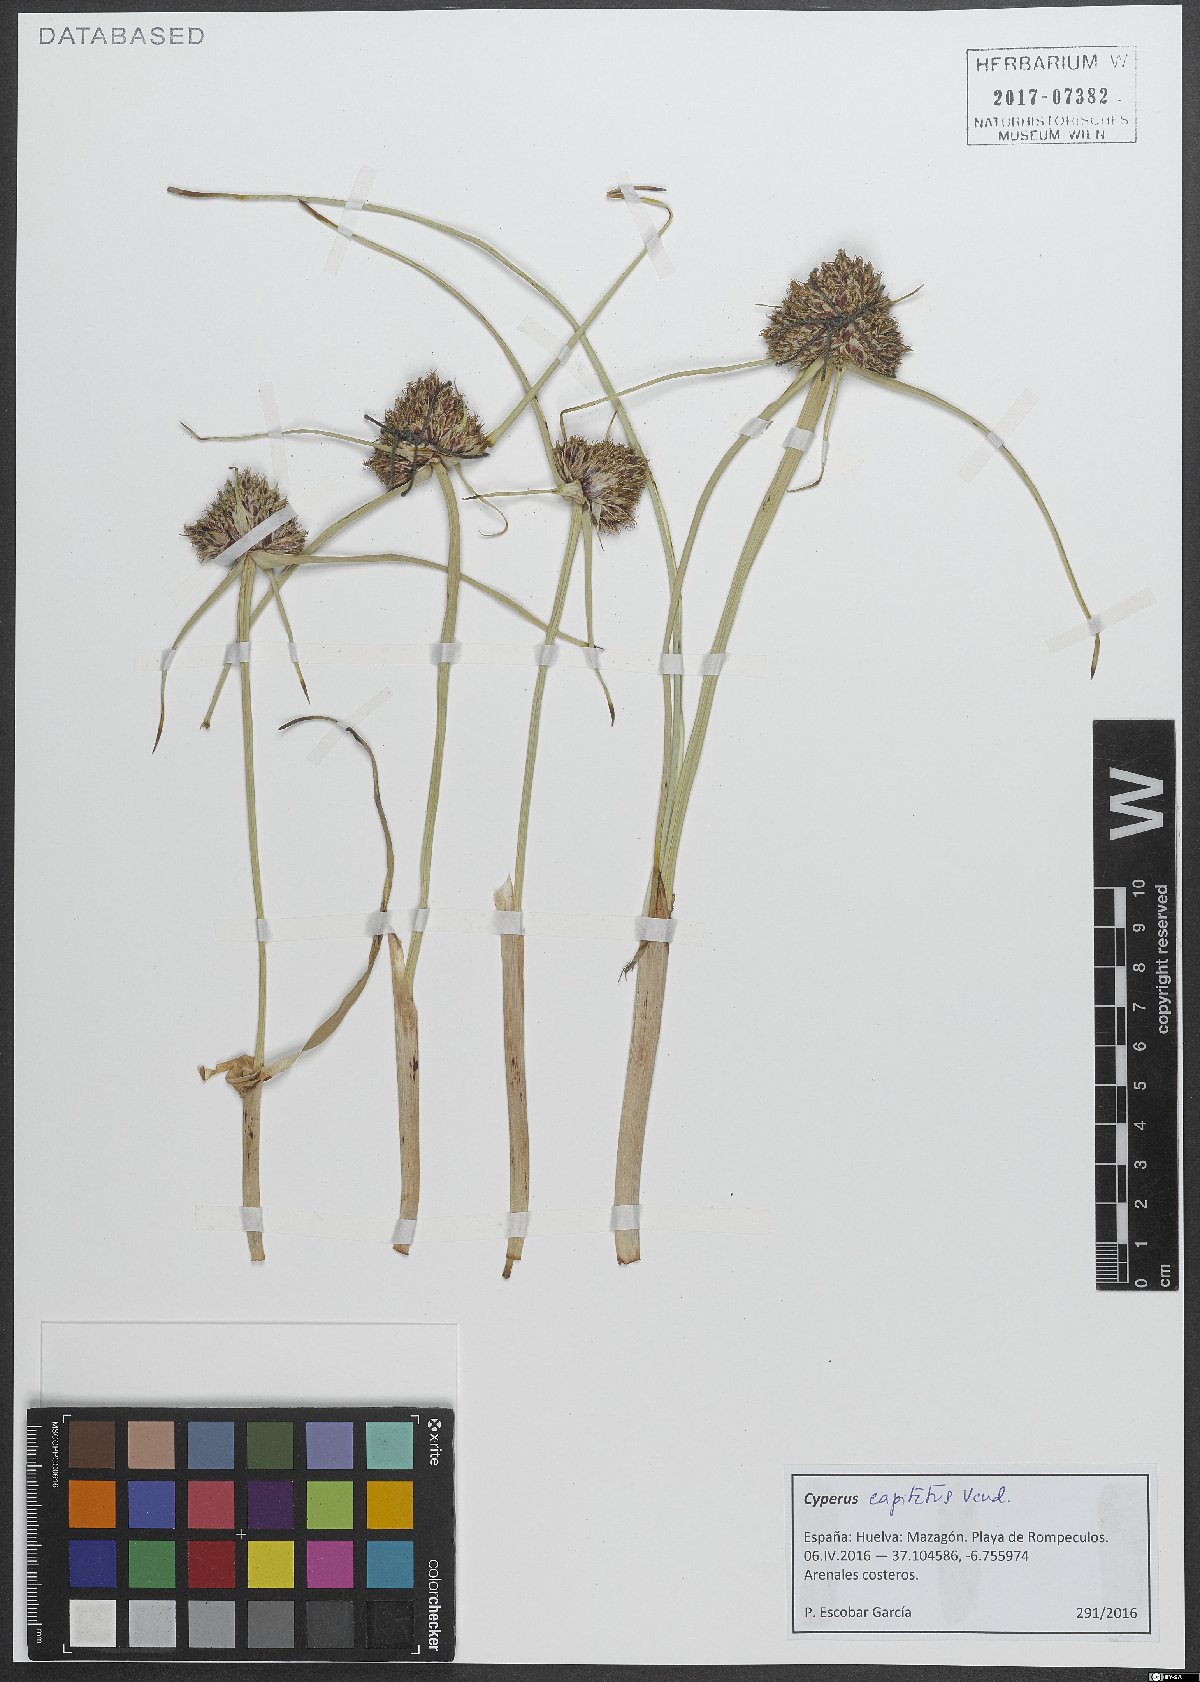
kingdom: Plantae
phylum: Tracheophyta
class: Liliopsida
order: Poales
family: Cyperaceae
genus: Cyperus
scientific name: Cyperus capitatus
